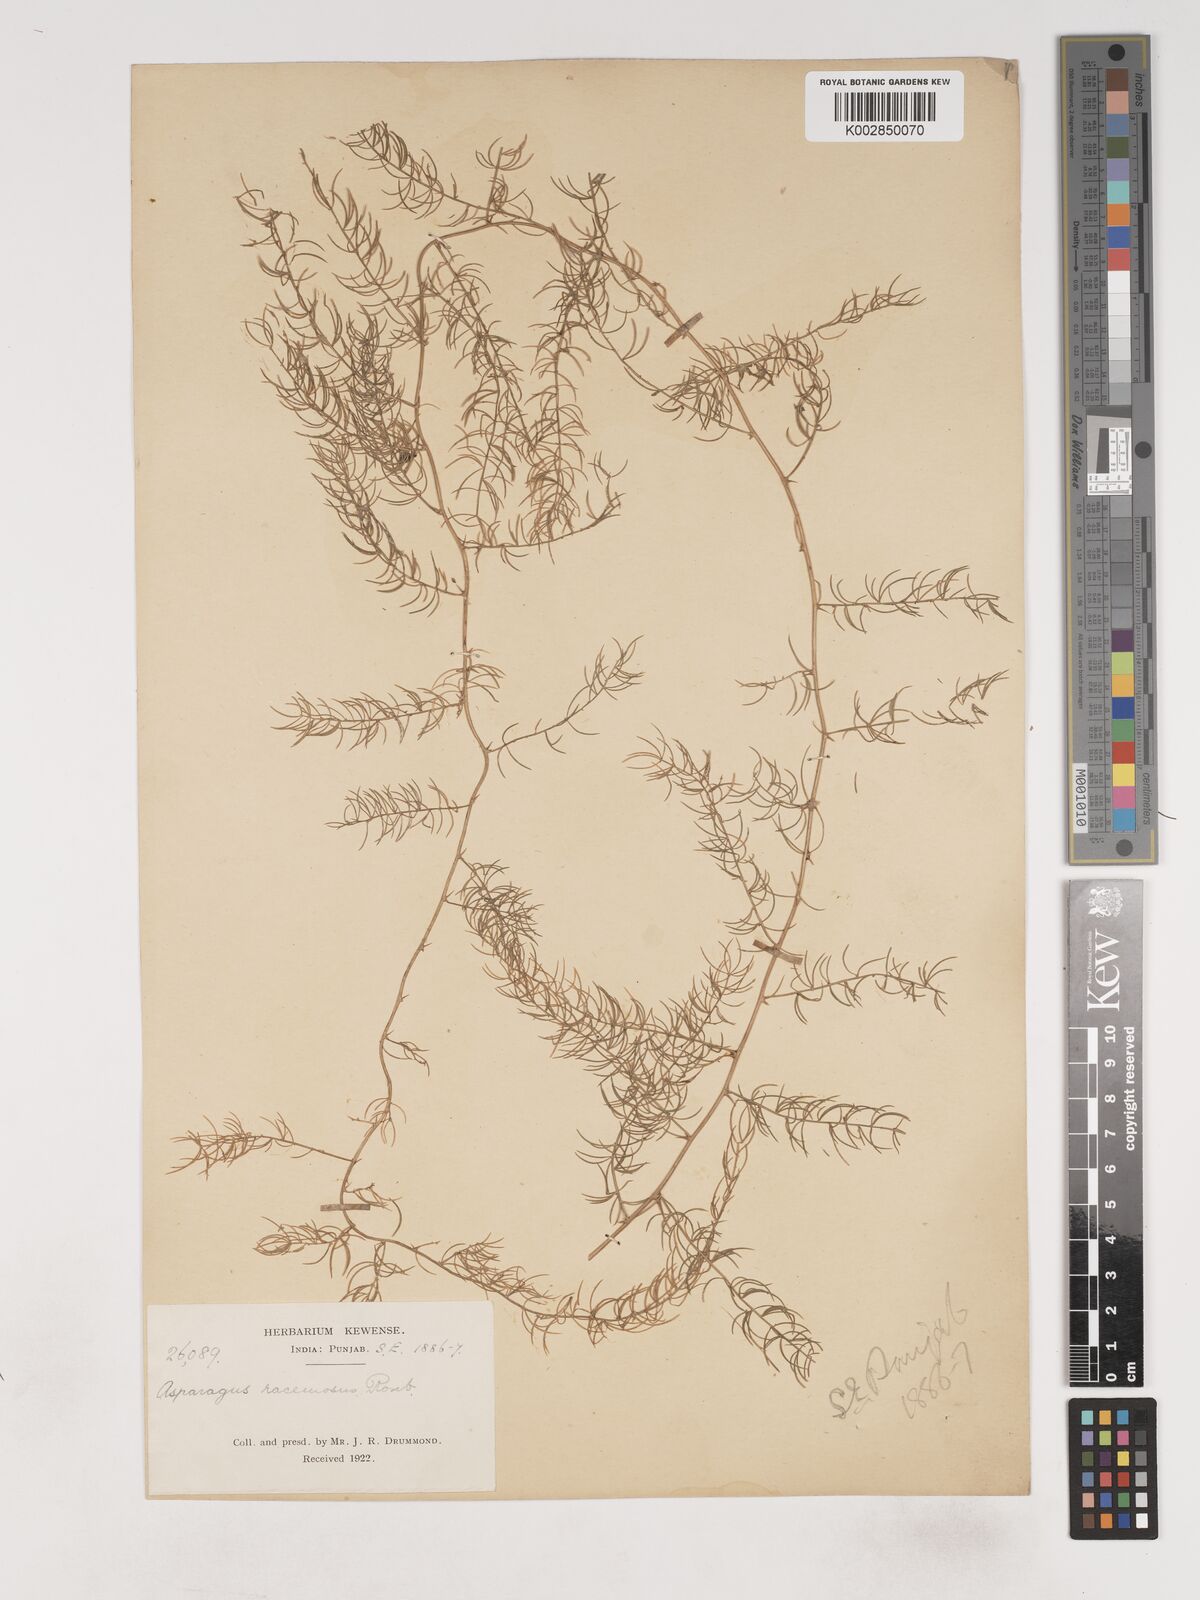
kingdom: Plantae
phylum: Tracheophyta
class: Liliopsida
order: Asparagales
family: Asparagaceae
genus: Asparagus
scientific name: Asparagus racemosus
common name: Asparagus-fern
